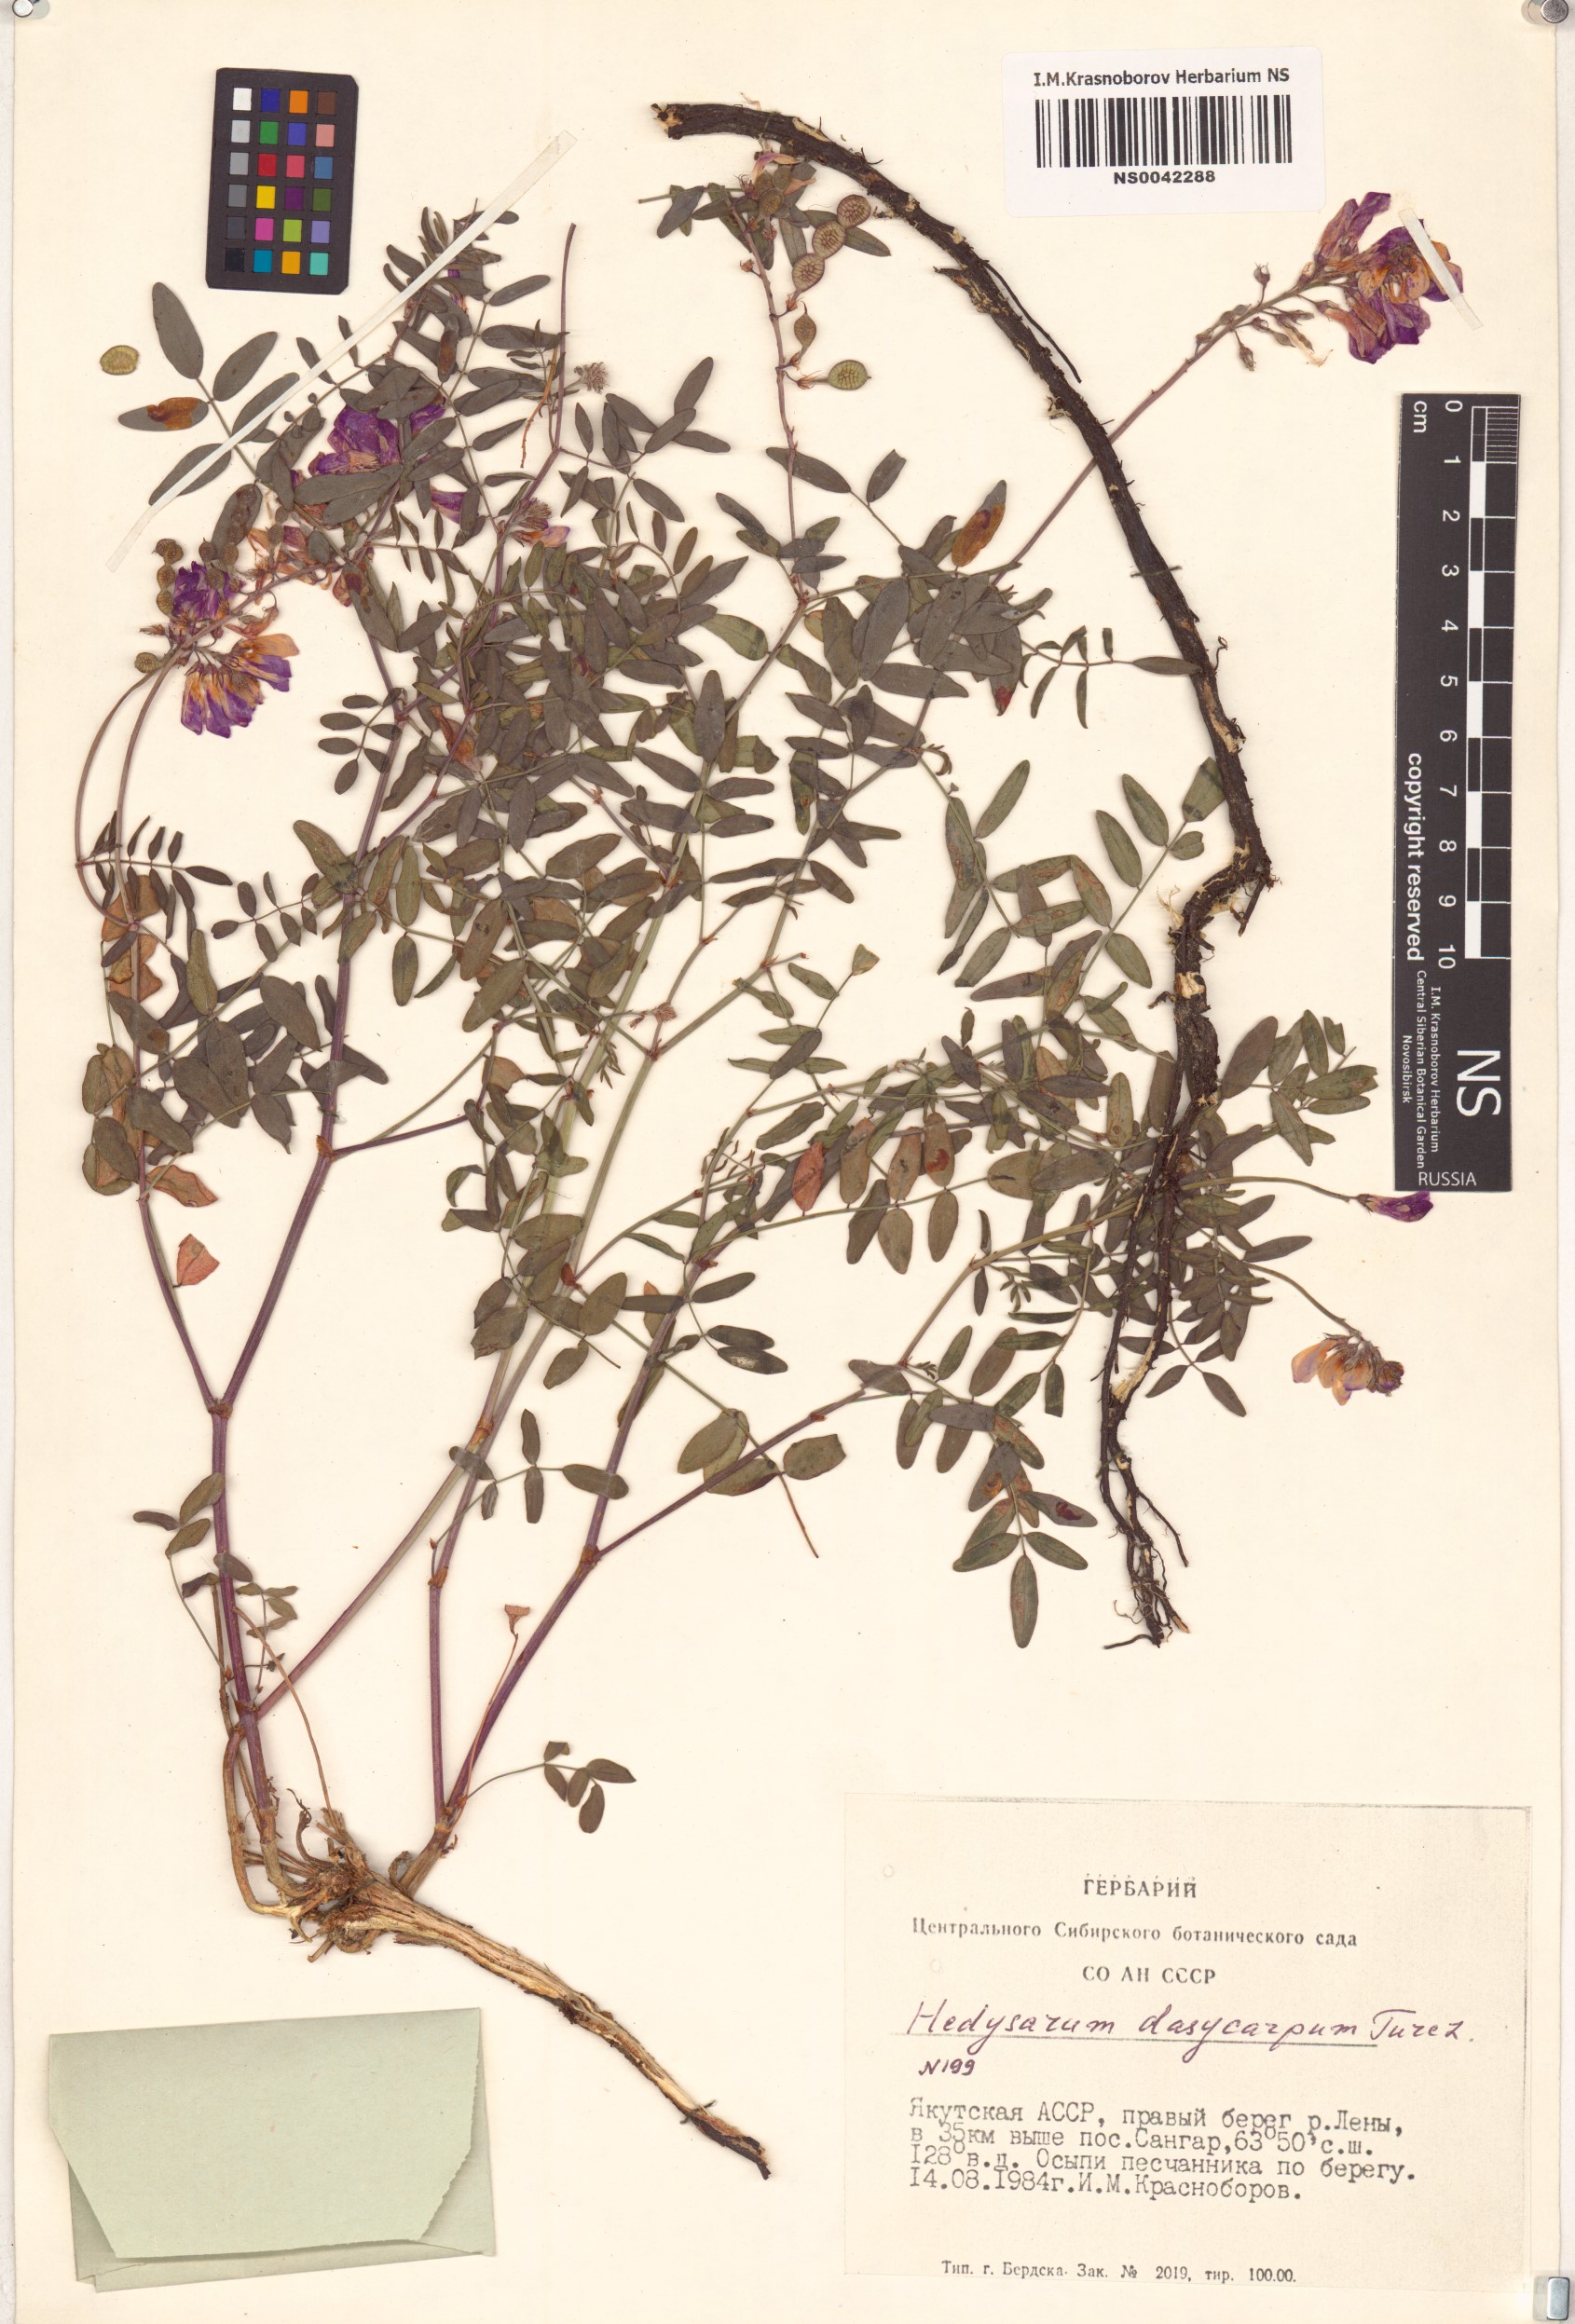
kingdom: Plantae
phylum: Tracheophyta
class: Magnoliopsida
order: Fabales
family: Fabaceae
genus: Hedysarum
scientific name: Hedysarum dasycarpum
